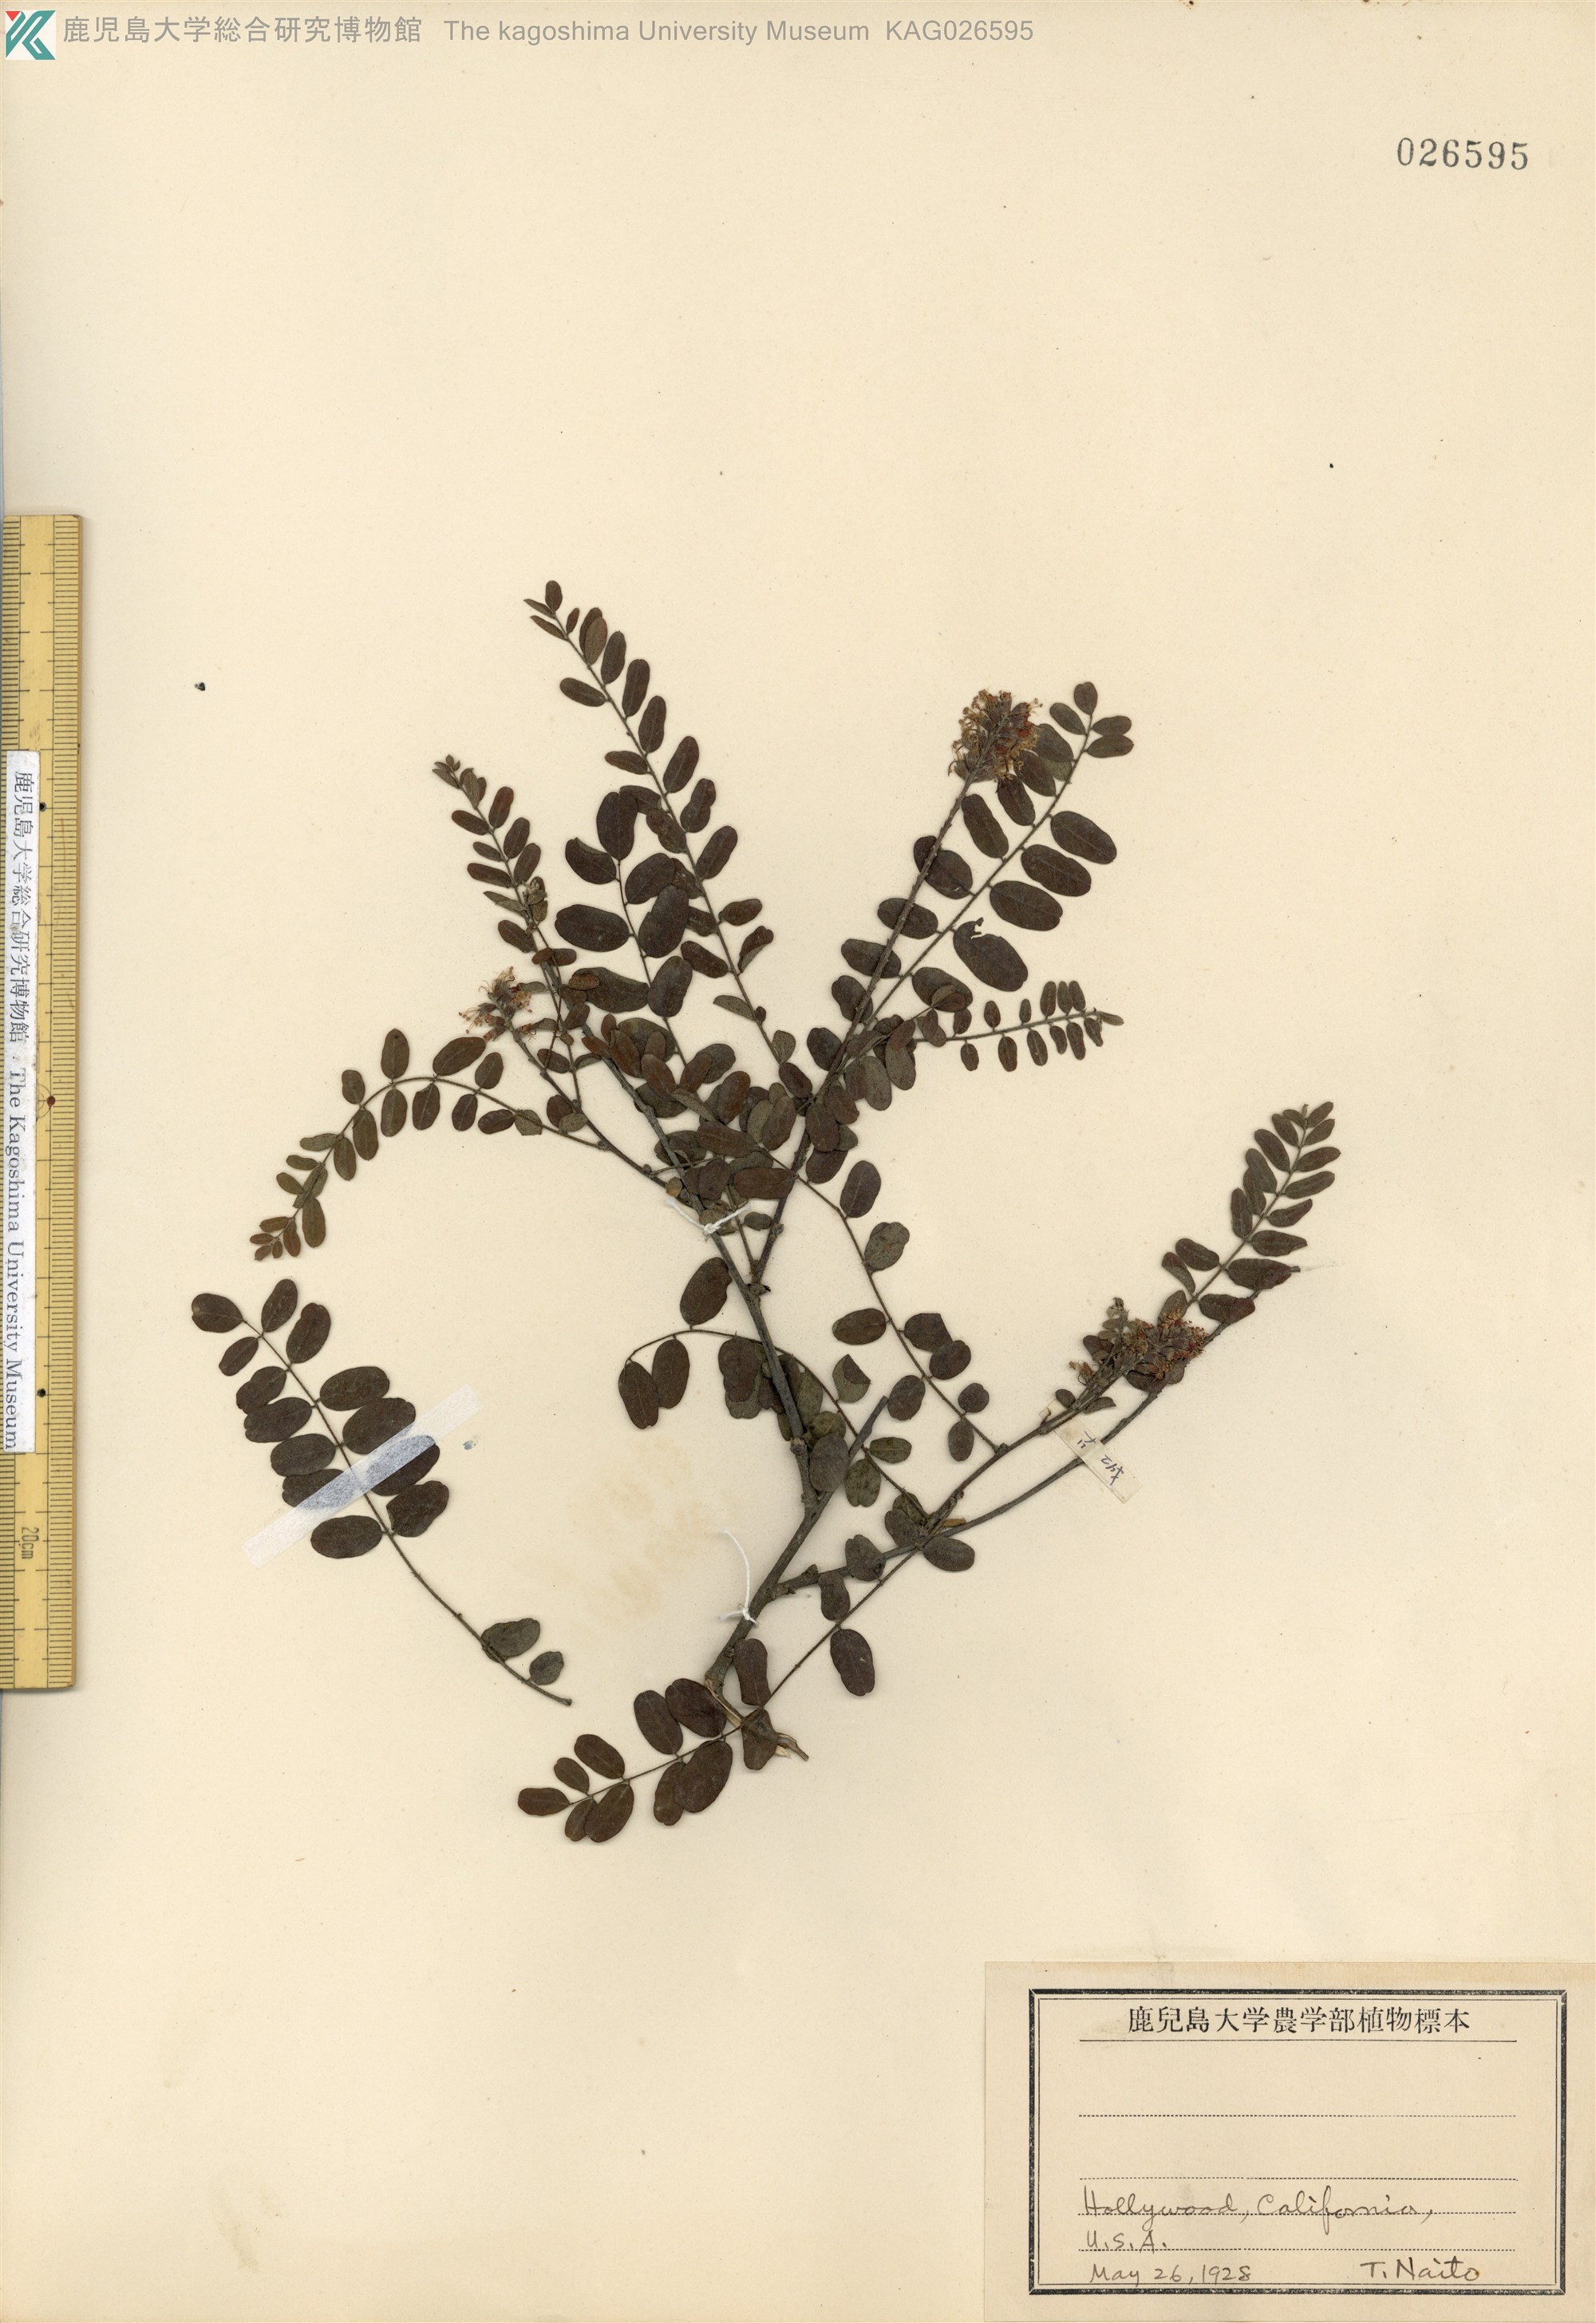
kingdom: Plantae
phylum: Tracheophyta
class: Magnoliopsida
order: Fabales
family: Fabaceae
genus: Amorpha
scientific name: Amorpha canescens
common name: Leadplant
